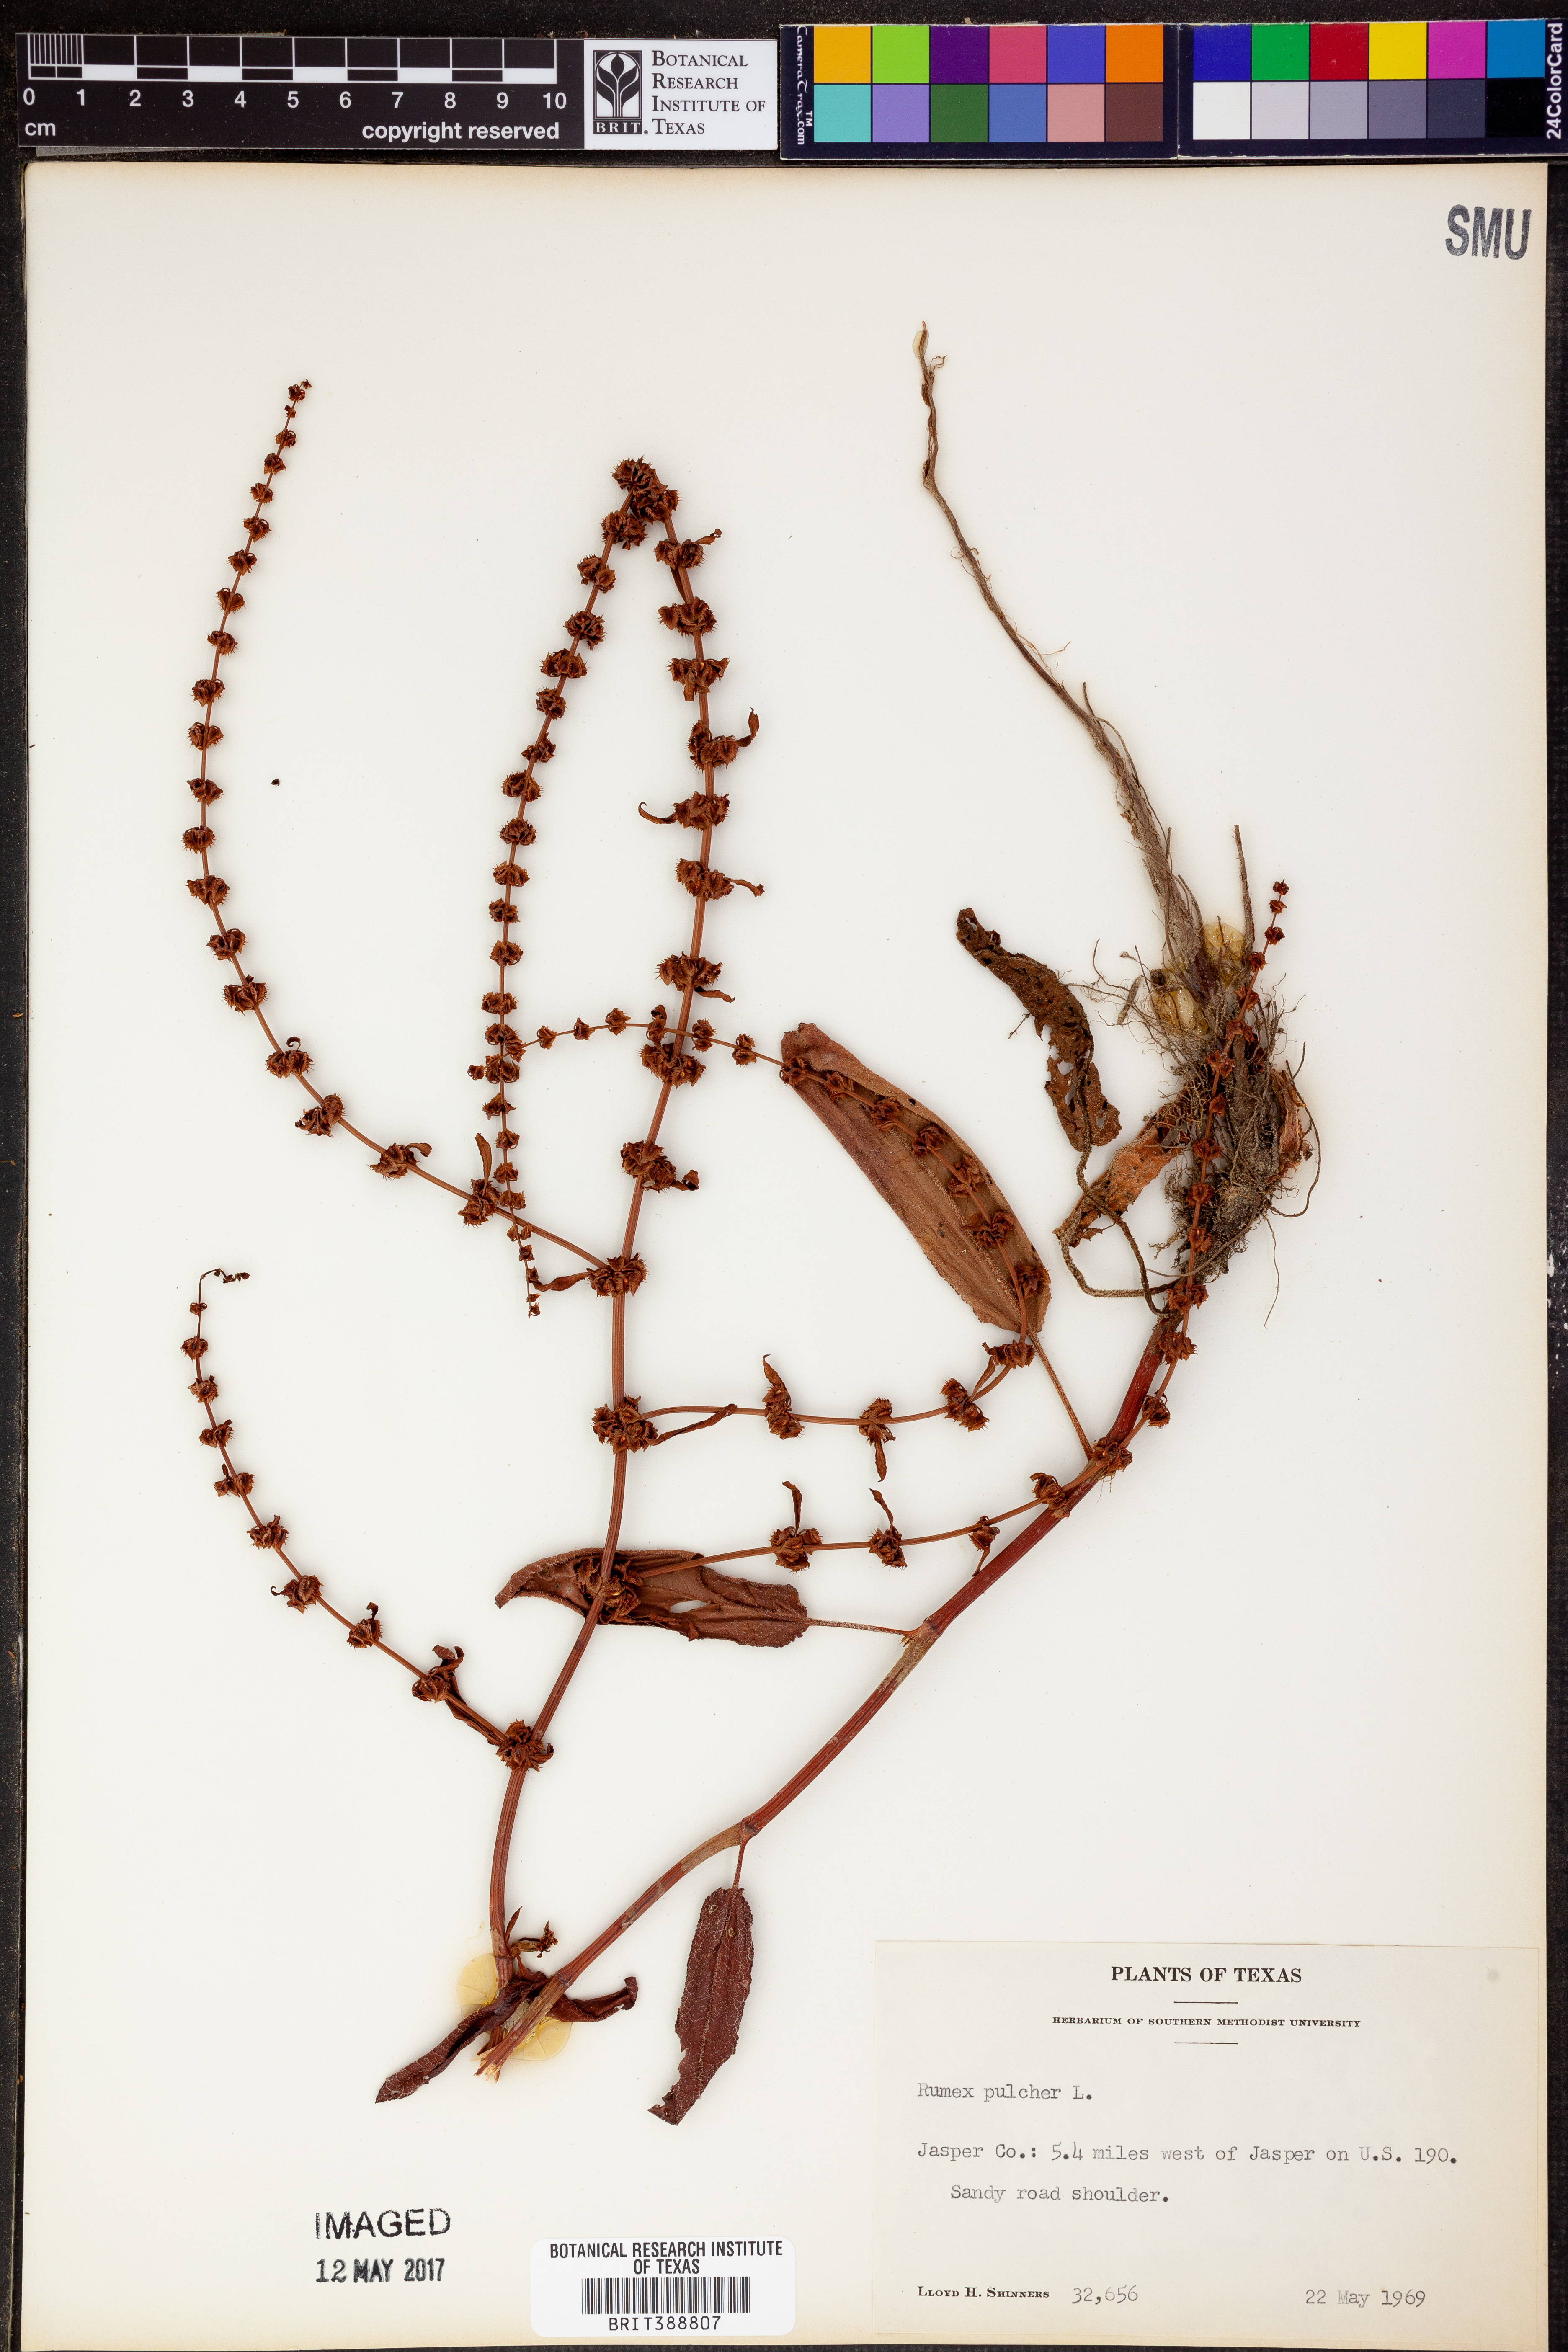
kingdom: Plantae
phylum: Tracheophyta
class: Magnoliopsida
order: Caryophyllales
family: Polygonaceae
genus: Rumex
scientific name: Rumex pulcher
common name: Fiddle dock
